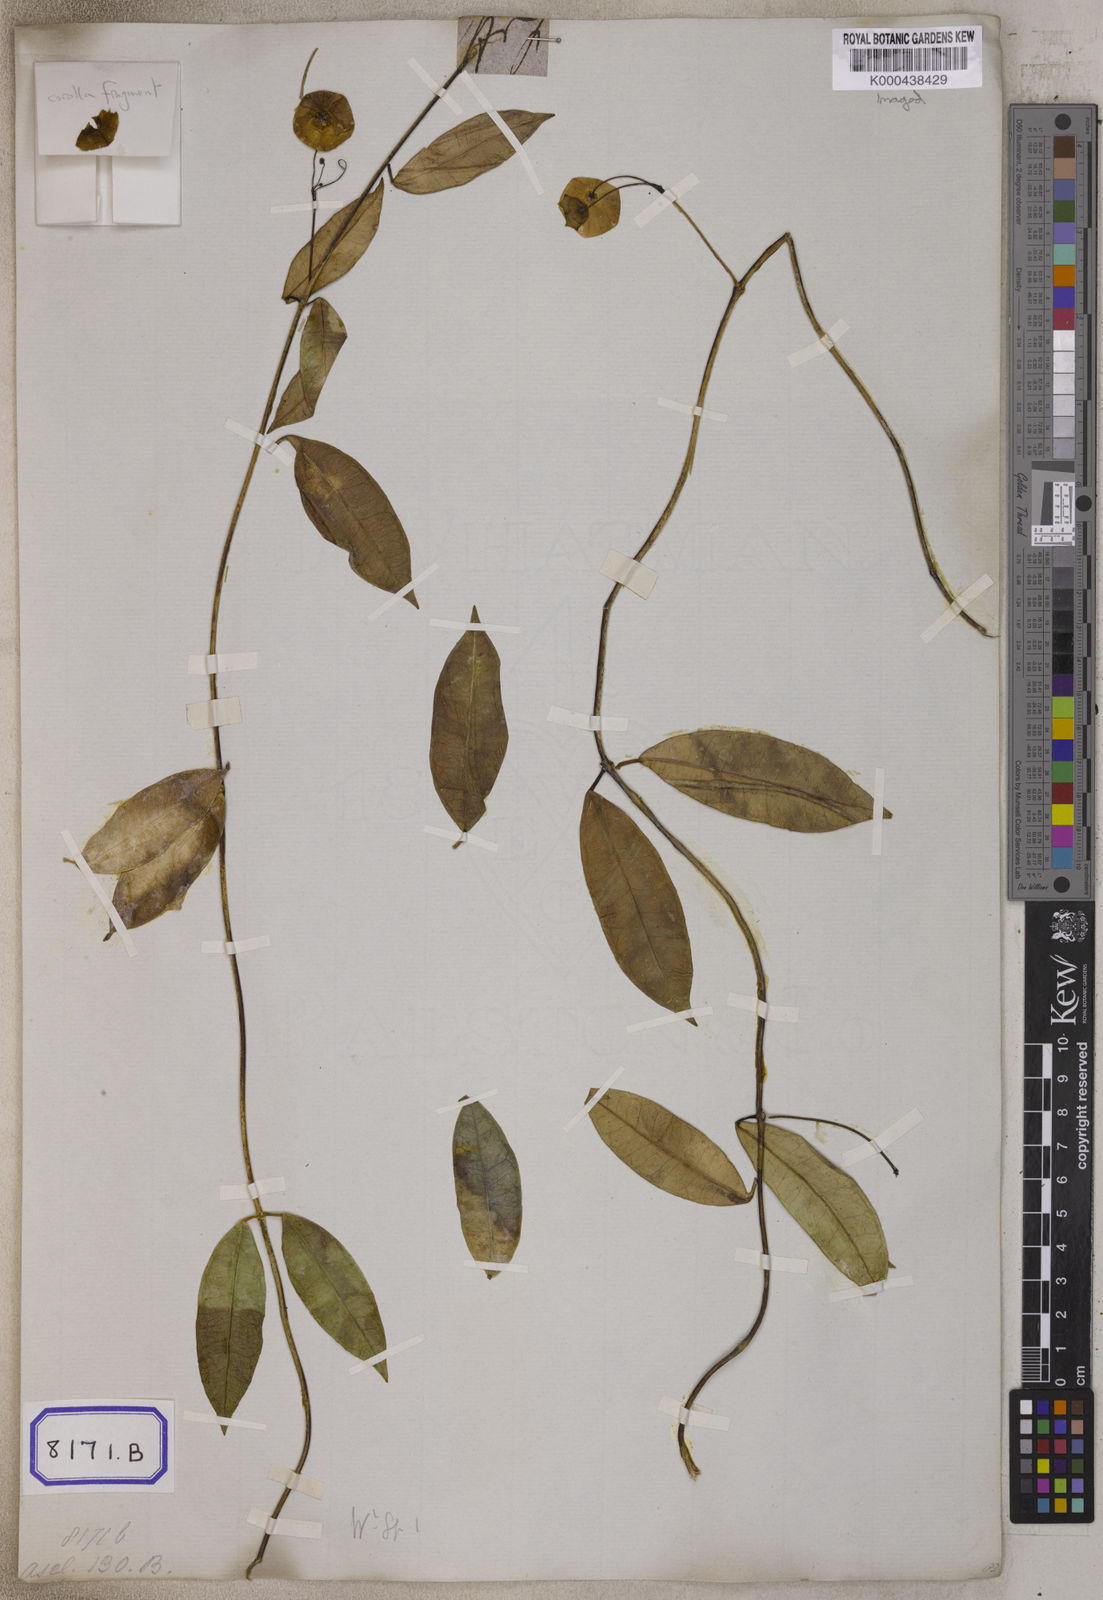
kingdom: Plantae
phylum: Tracheophyta
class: Magnoliopsida
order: Gentianales
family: Apocynaceae
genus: Hoya
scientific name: Hoya wallichii
